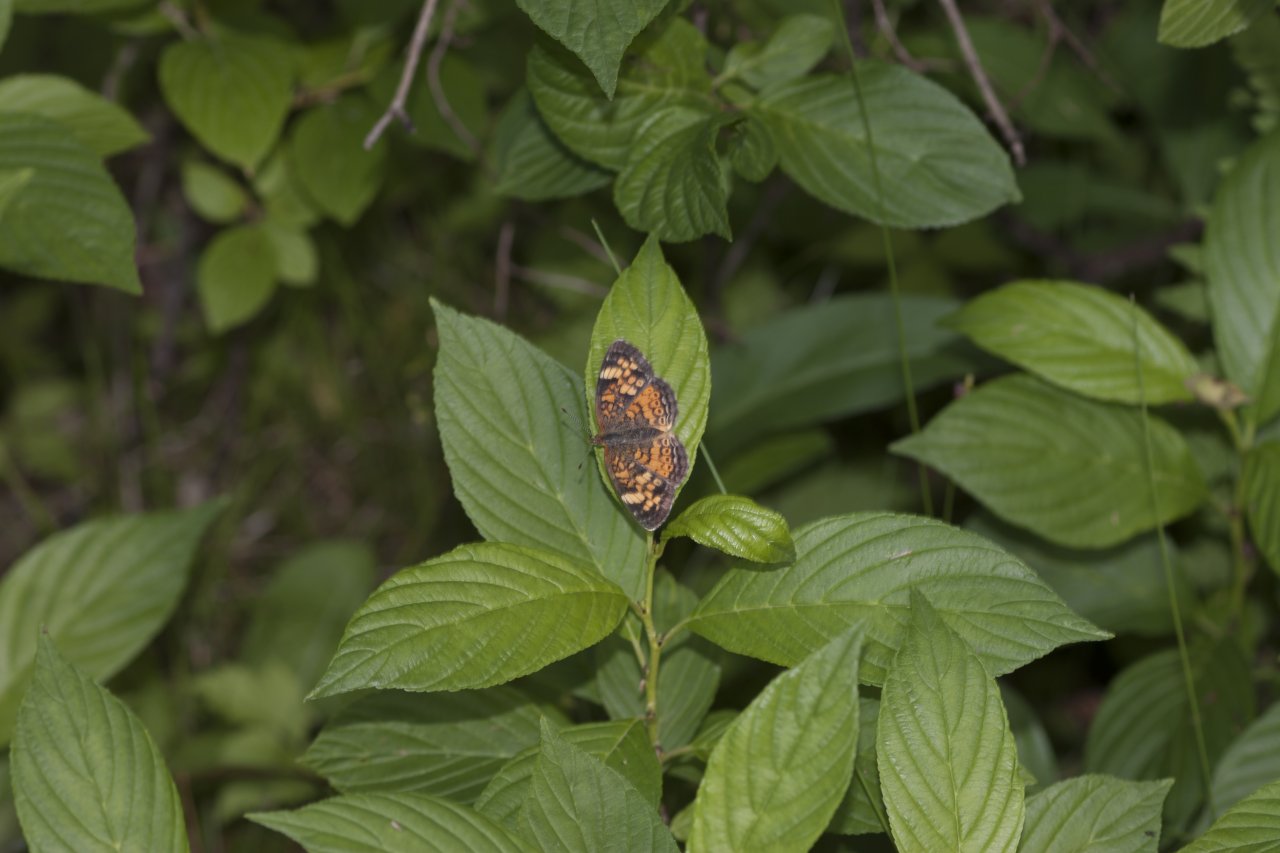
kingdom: Animalia
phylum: Arthropoda
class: Insecta
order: Lepidoptera
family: Nymphalidae
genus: Phyciodes
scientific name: Phyciodes tharos
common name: Northern Crescent
